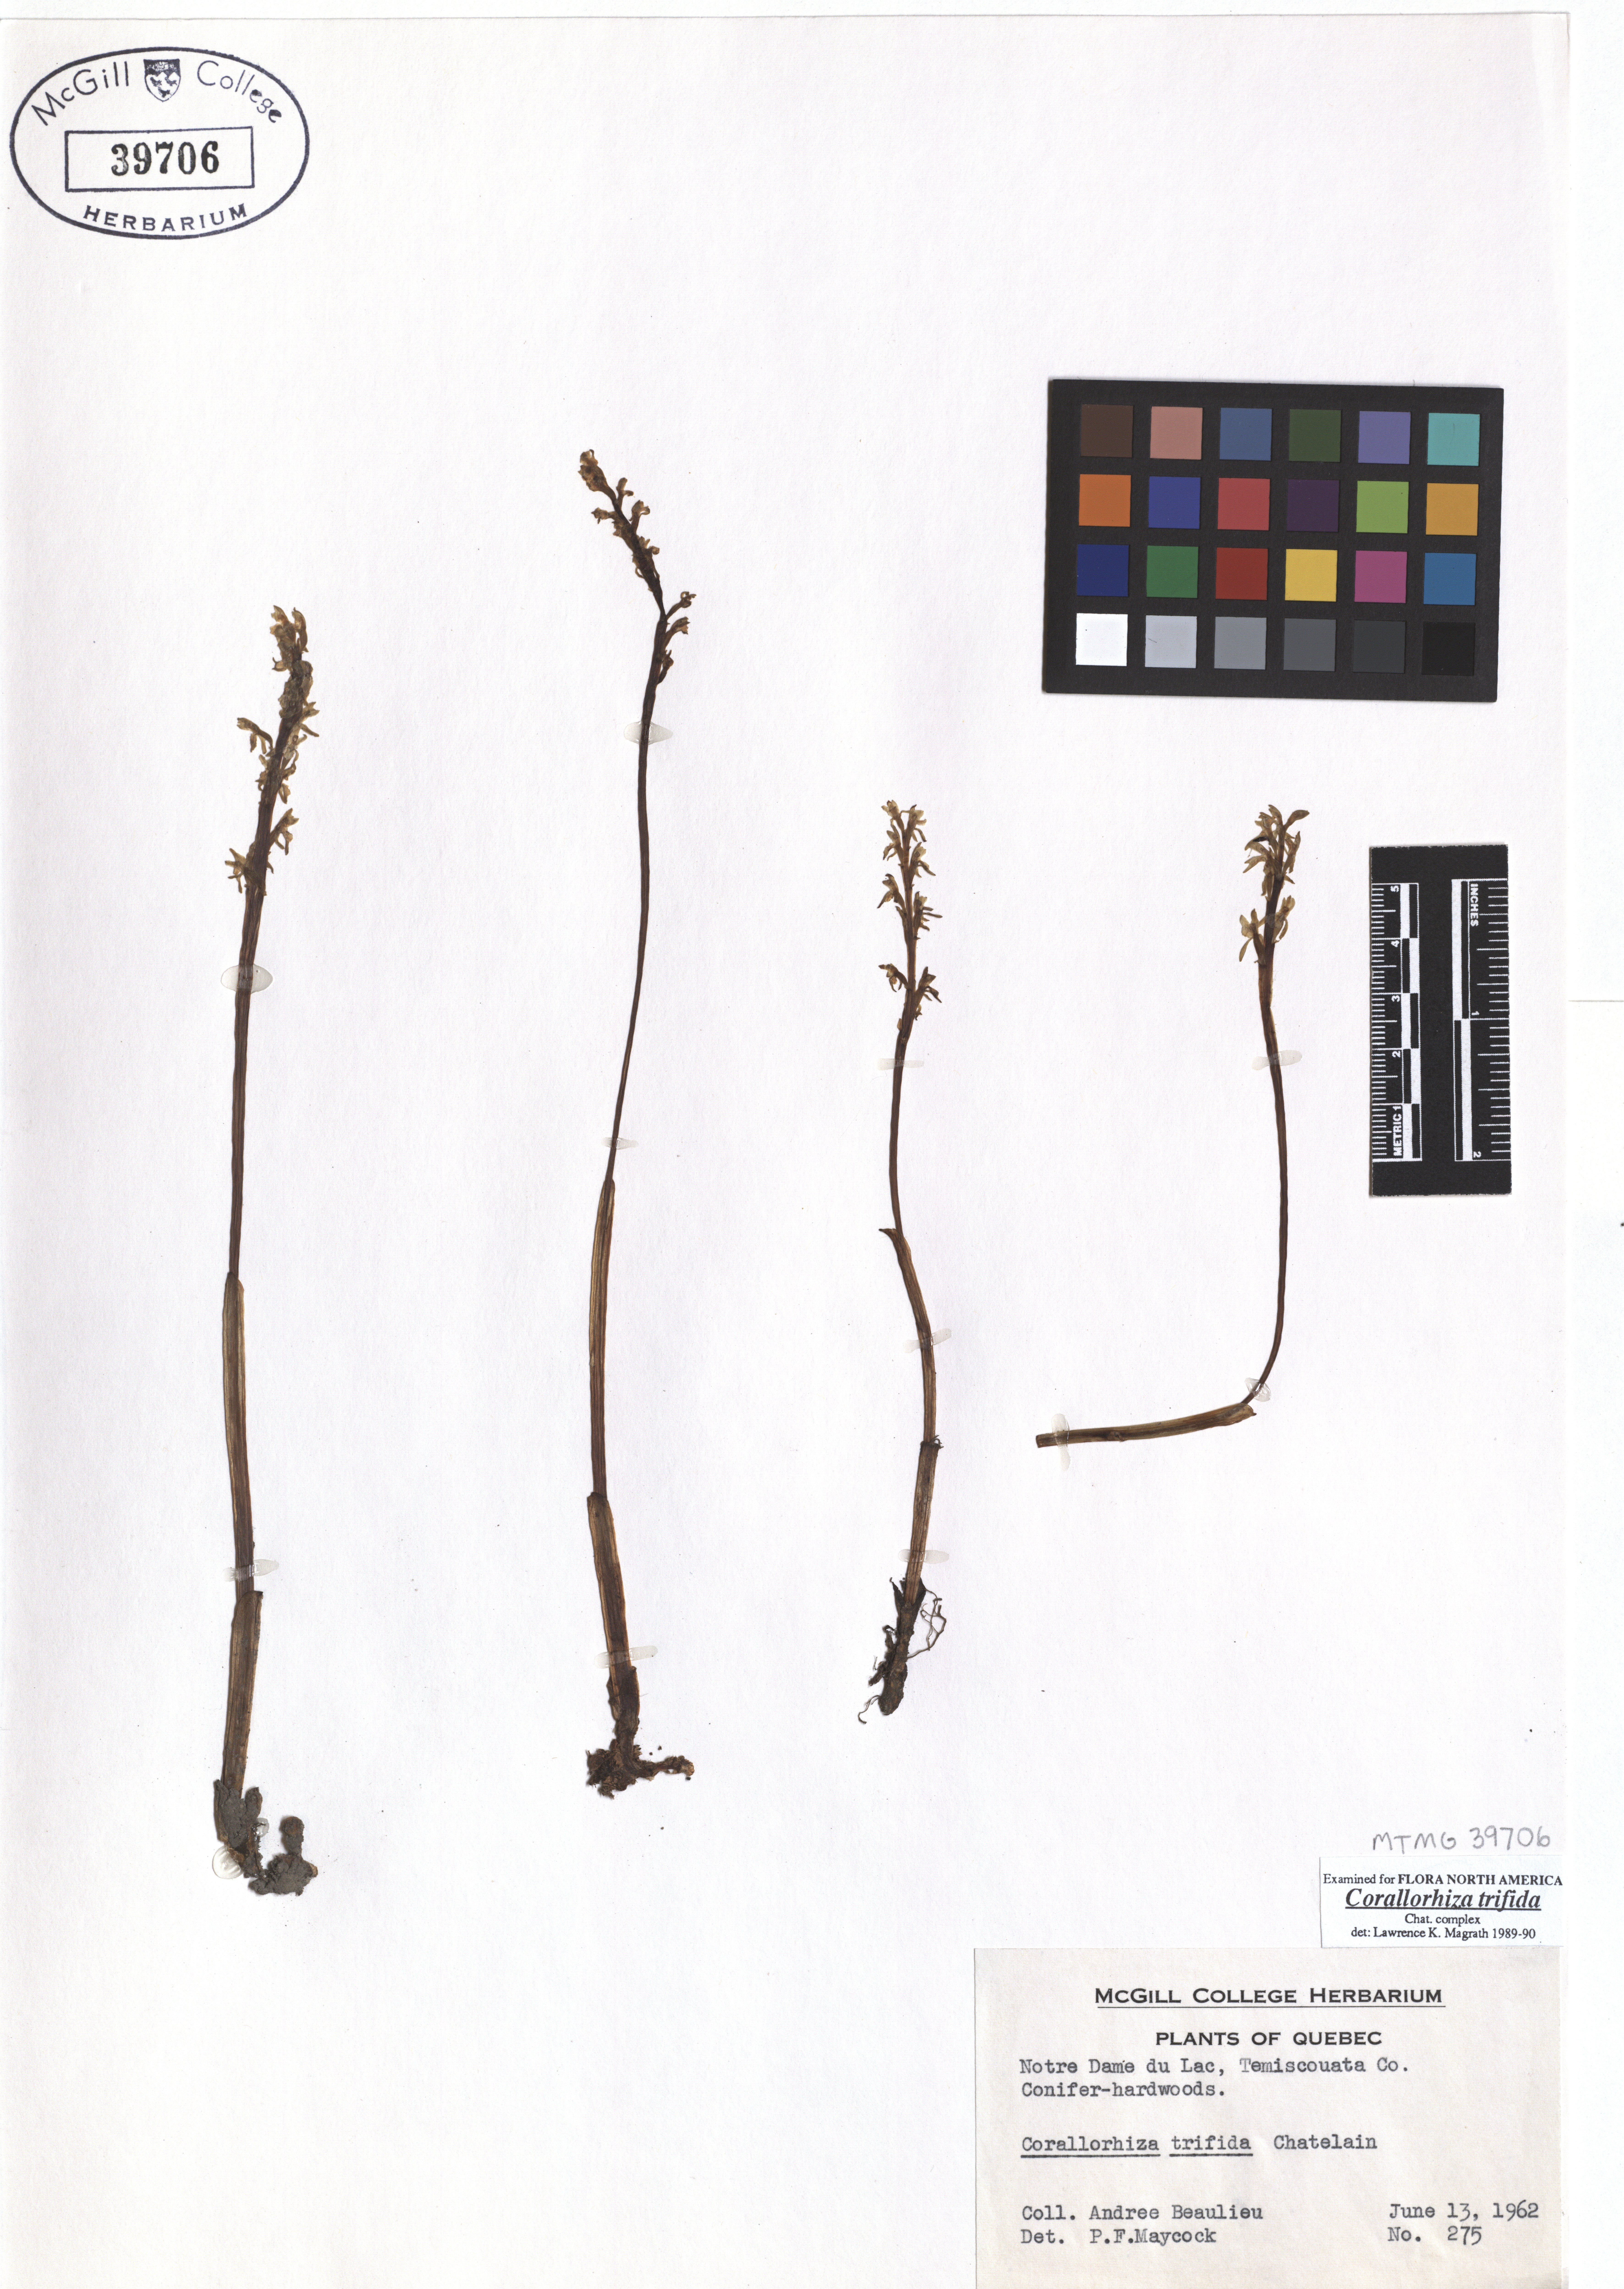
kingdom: Plantae
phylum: Tracheophyta
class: Liliopsida
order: Asparagales
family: Orchidaceae
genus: Corallorhiza
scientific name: Corallorhiza trifida
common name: Yellow coralroot
